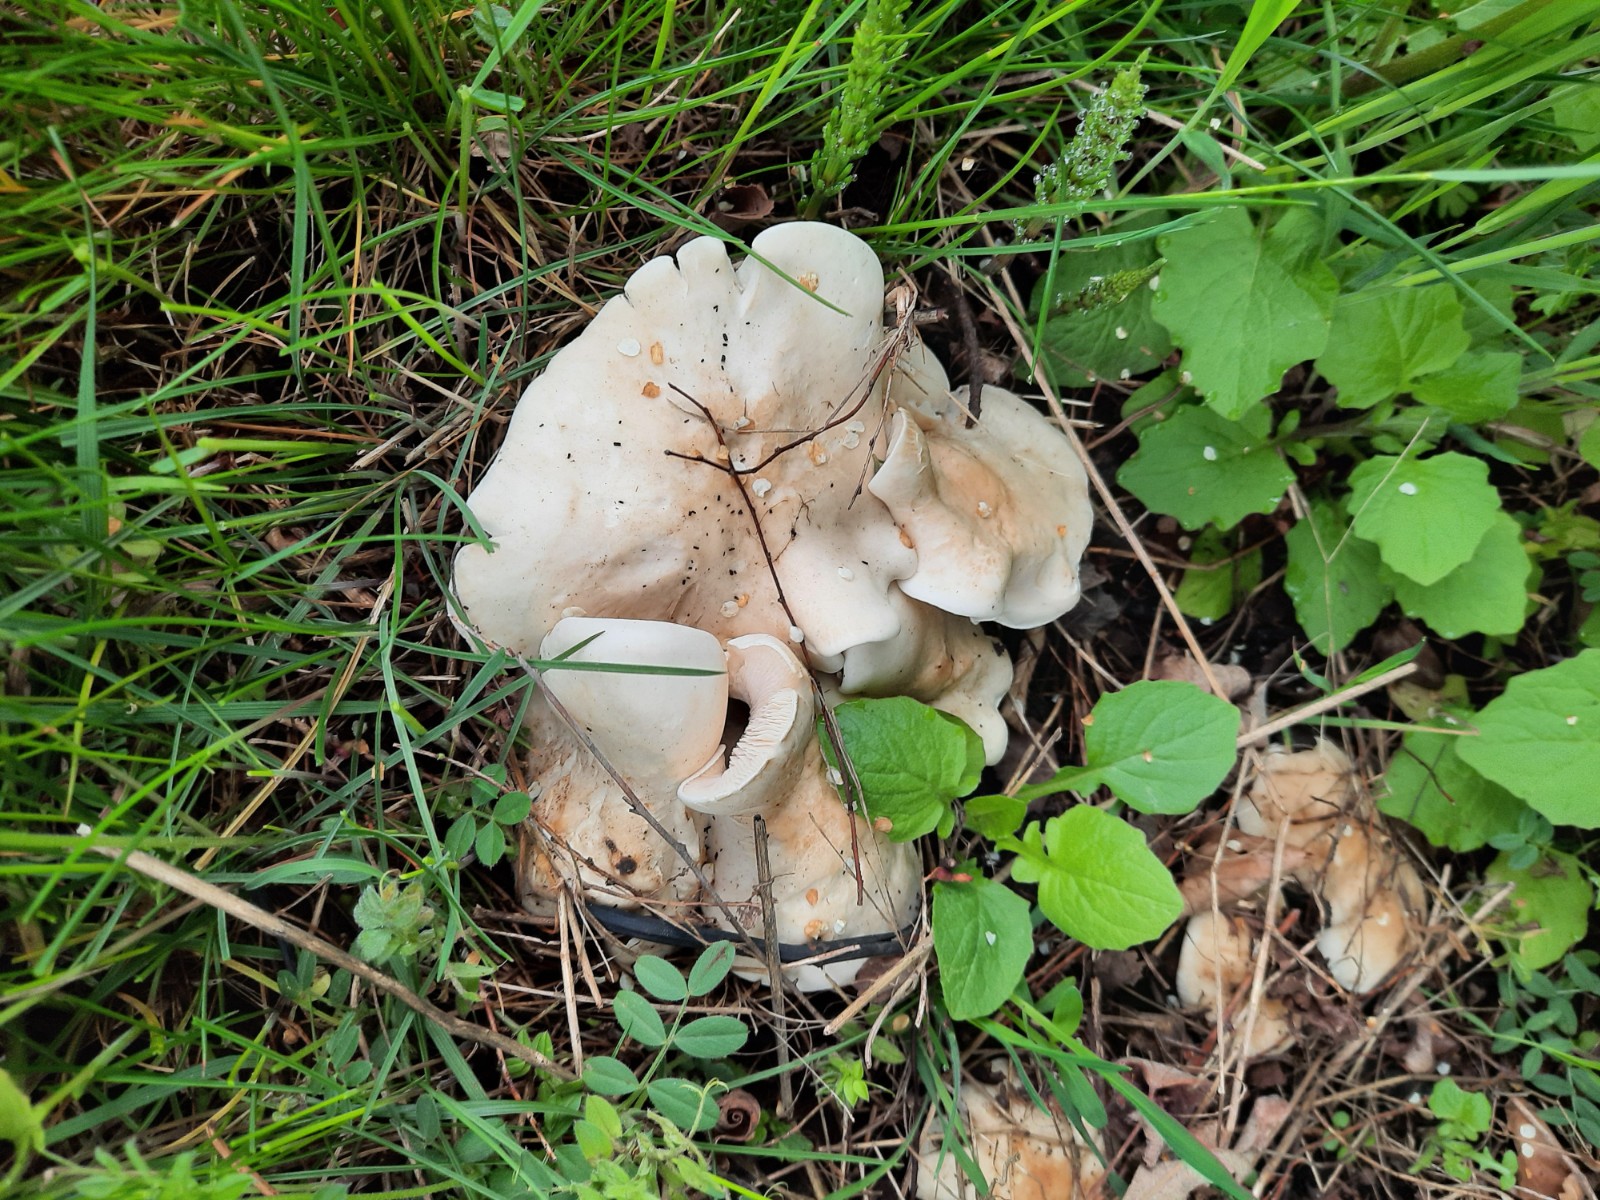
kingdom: Fungi
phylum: Basidiomycota
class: Agaricomycetes
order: Agaricales
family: Lyophyllaceae
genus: Calocybe
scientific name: Calocybe gambosa
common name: vårmusseron
